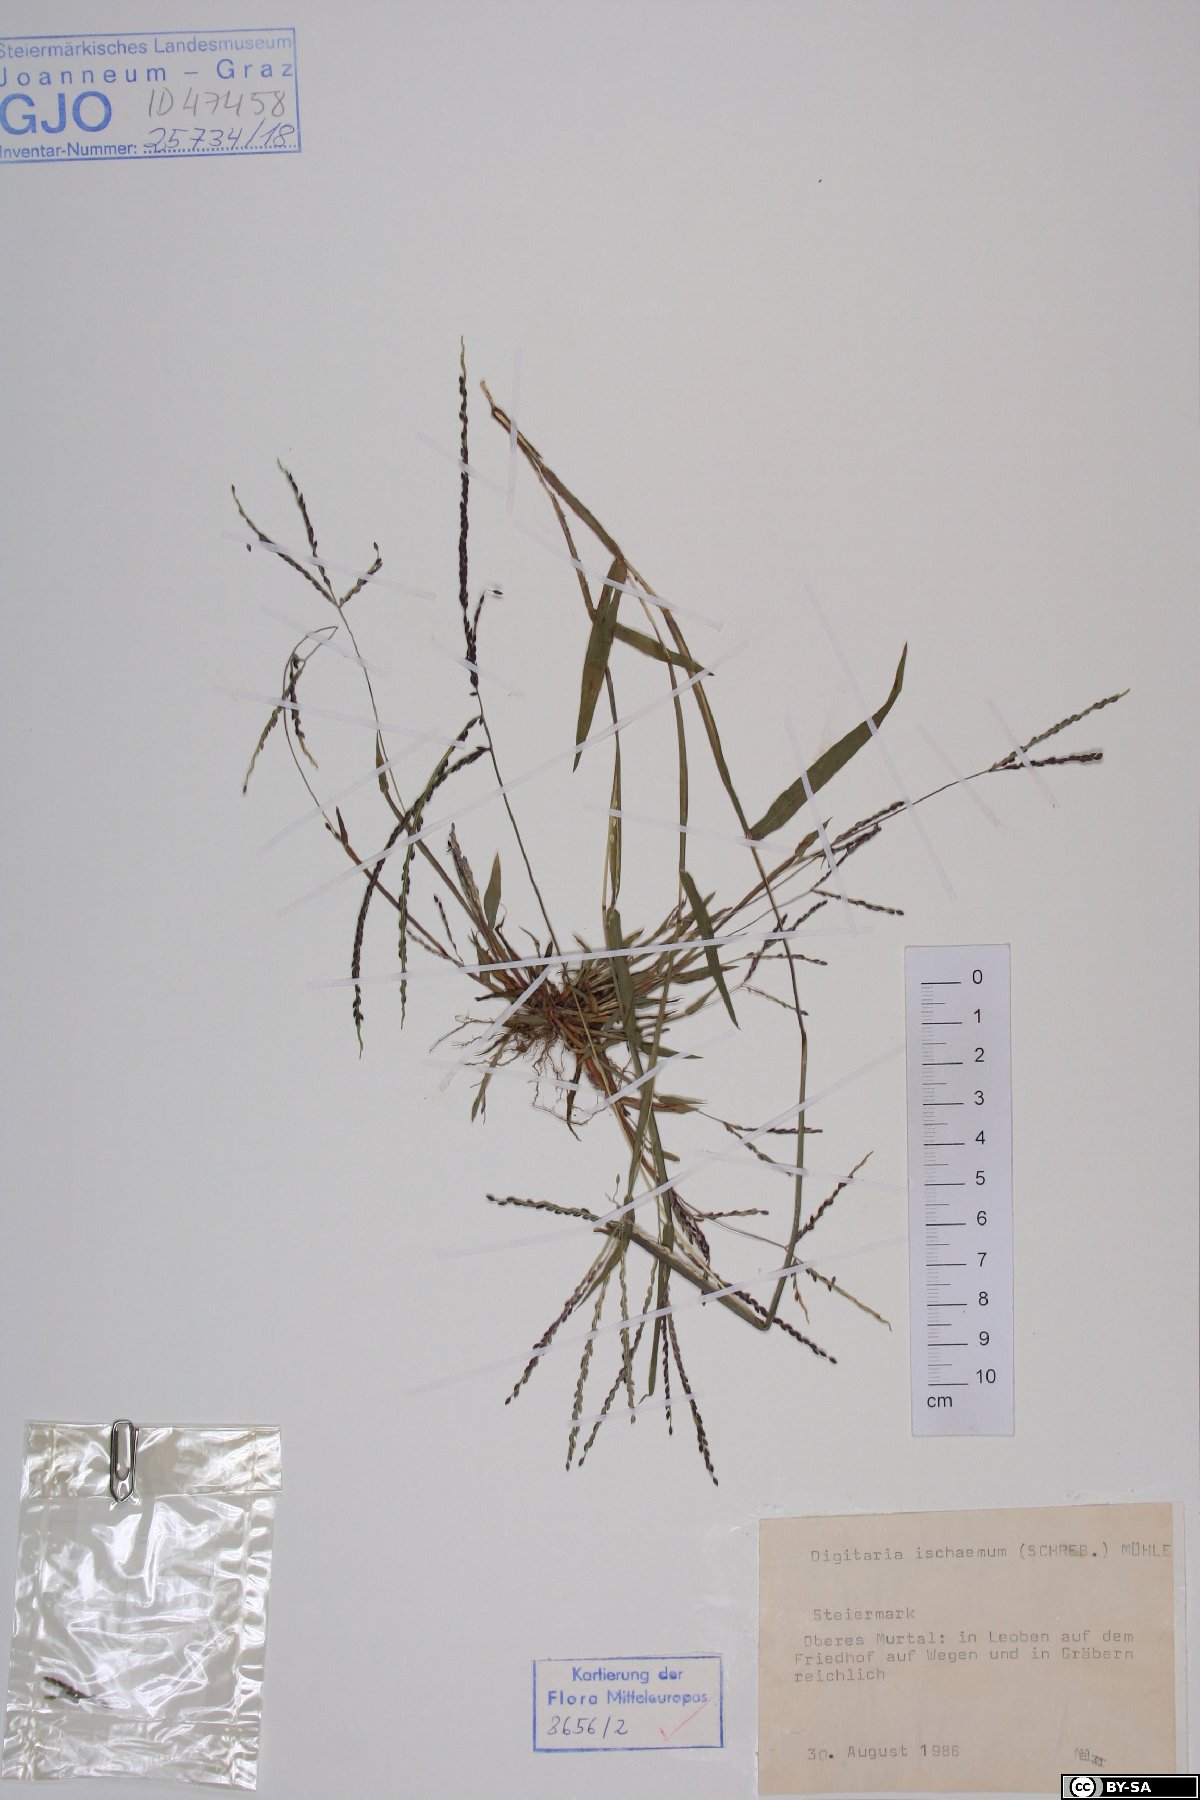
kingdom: Plantae
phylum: Tracheophyta
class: Liliopsida
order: Poales
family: Poaceae
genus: Digitaria
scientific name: Digitaria ischaemum
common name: Smooth crabgrass
